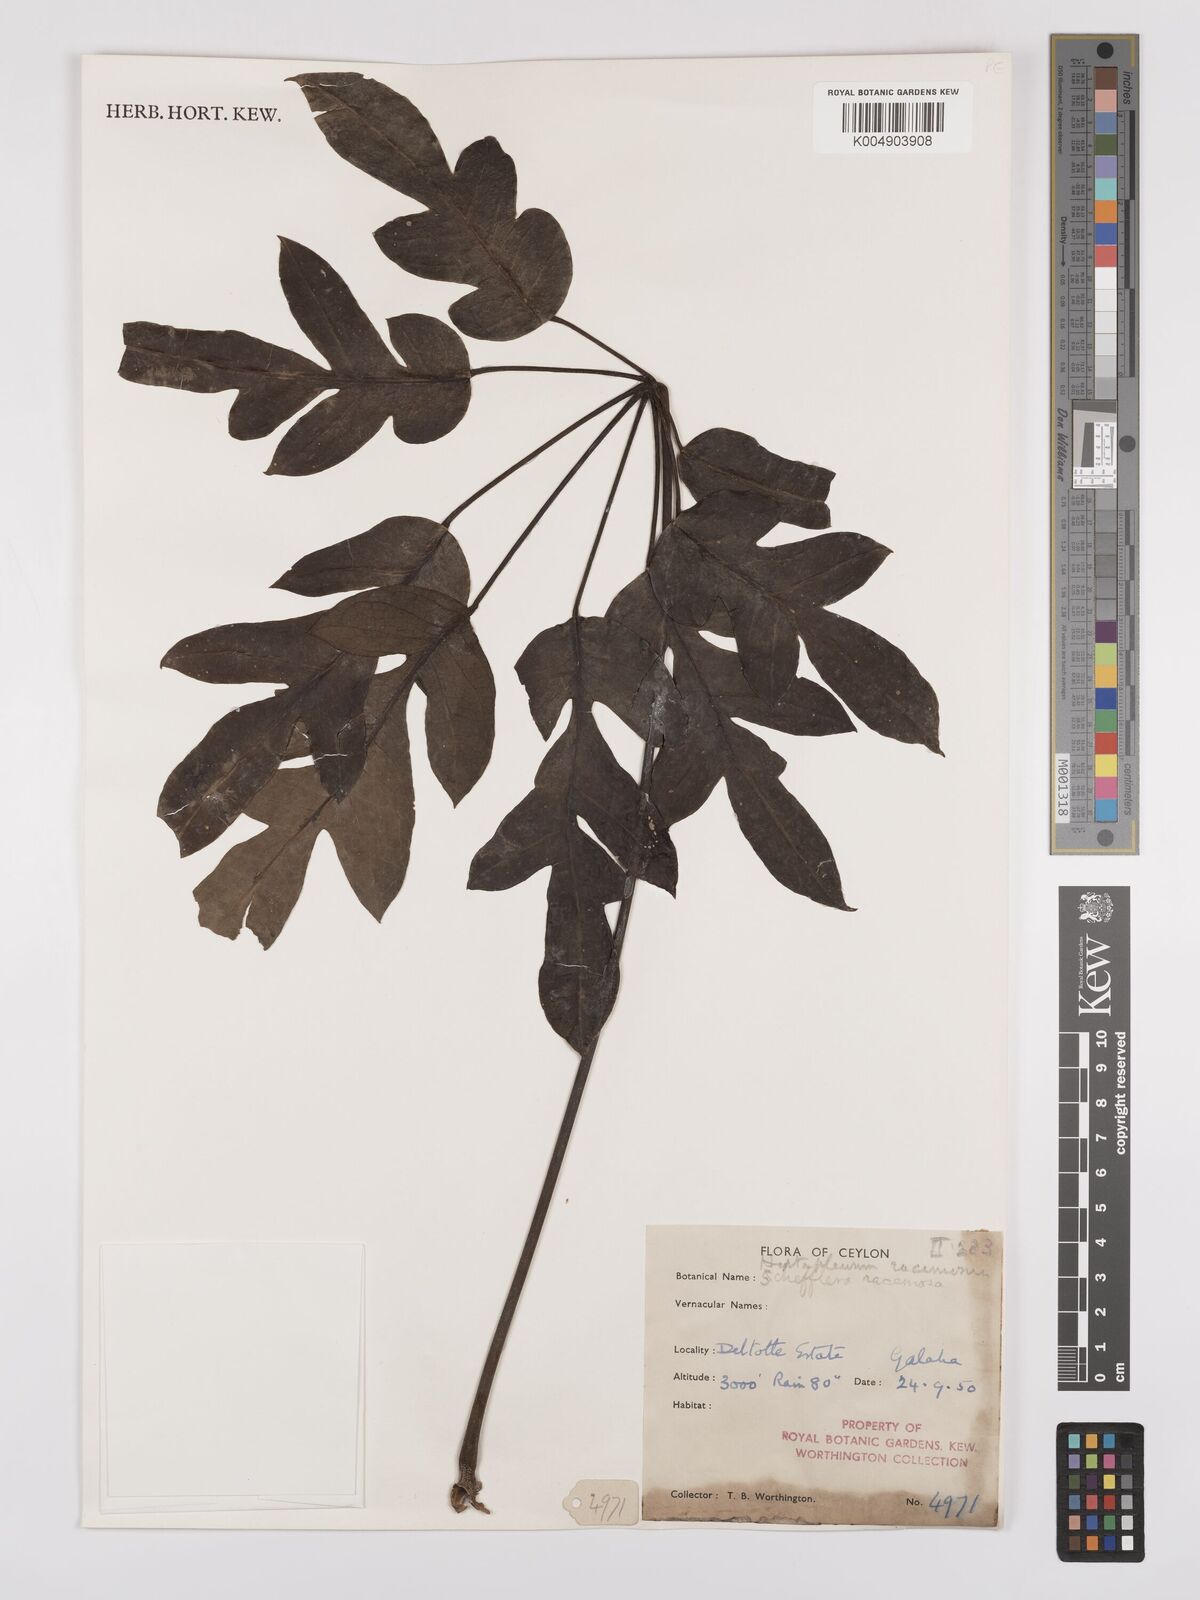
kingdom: Plantae
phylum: Tracheophyta
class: Magnoliopsida
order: Apiales
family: Araliaceae
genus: Heptapleurum
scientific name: Heptapleurum
